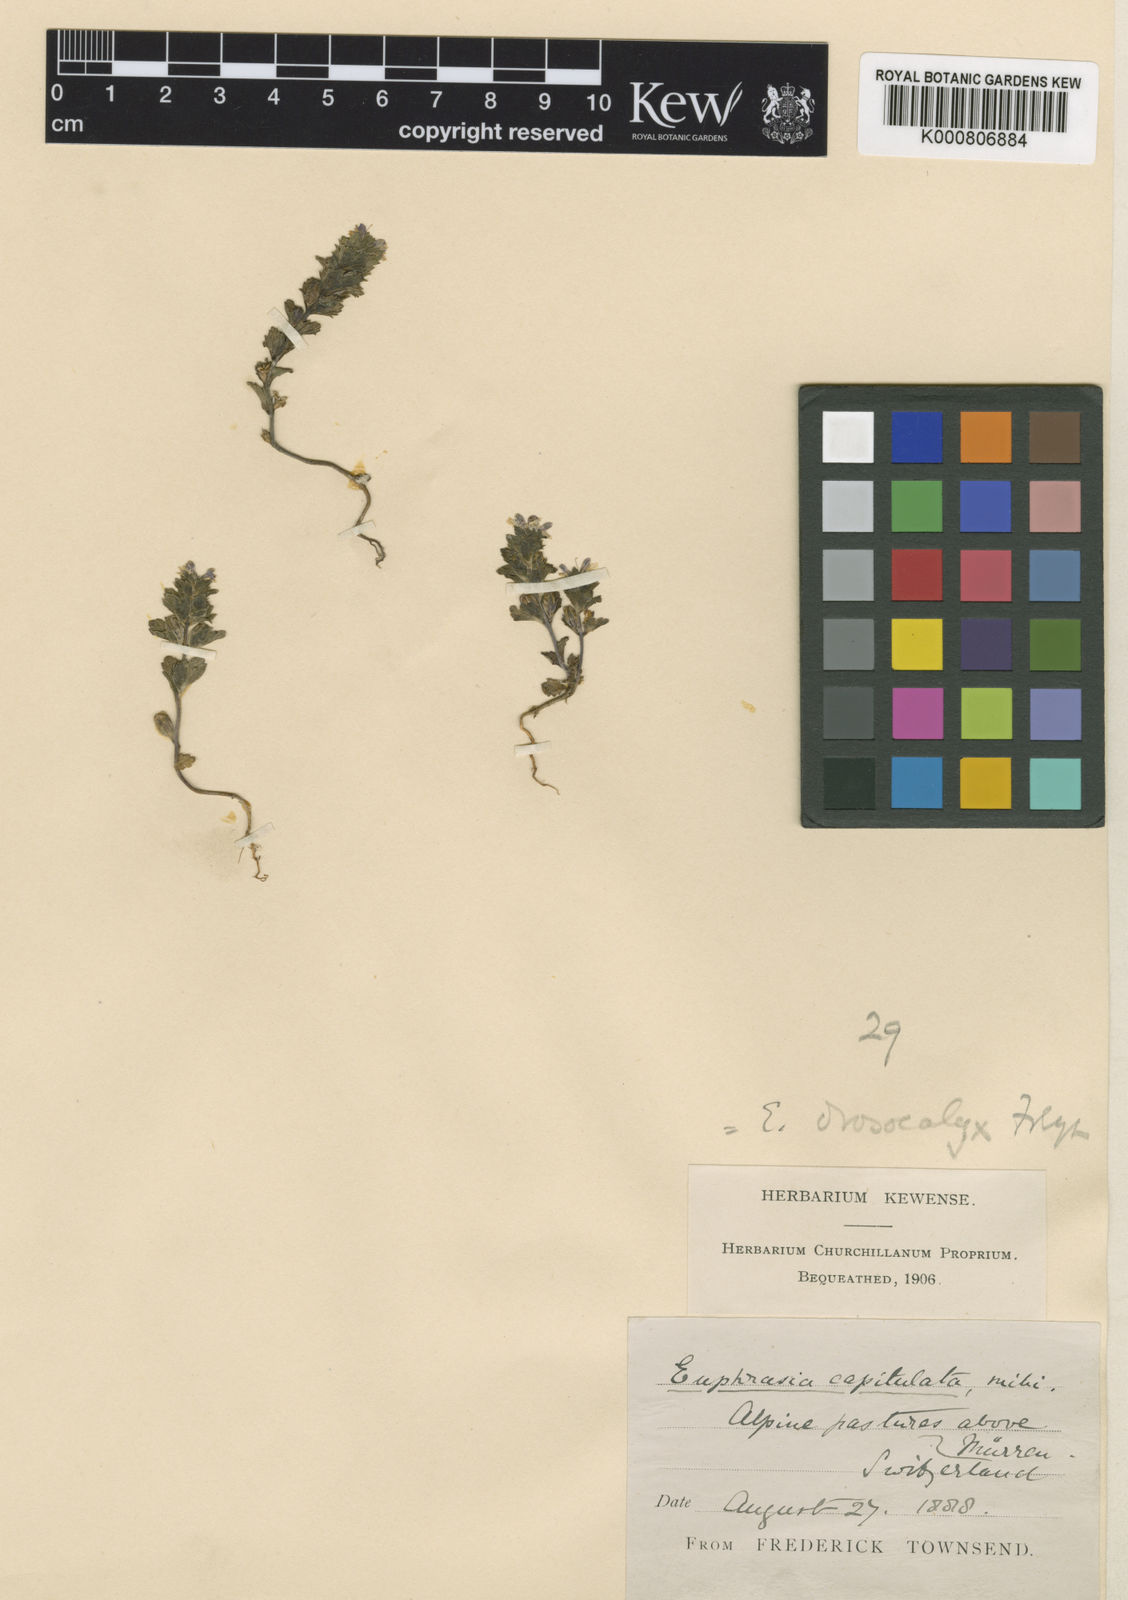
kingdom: Plantae
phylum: Tracheophyta
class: Magnoliopsida
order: Lamiales
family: Orobanchaceae
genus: Euphrasia
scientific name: Euphrasia drosocalyx
